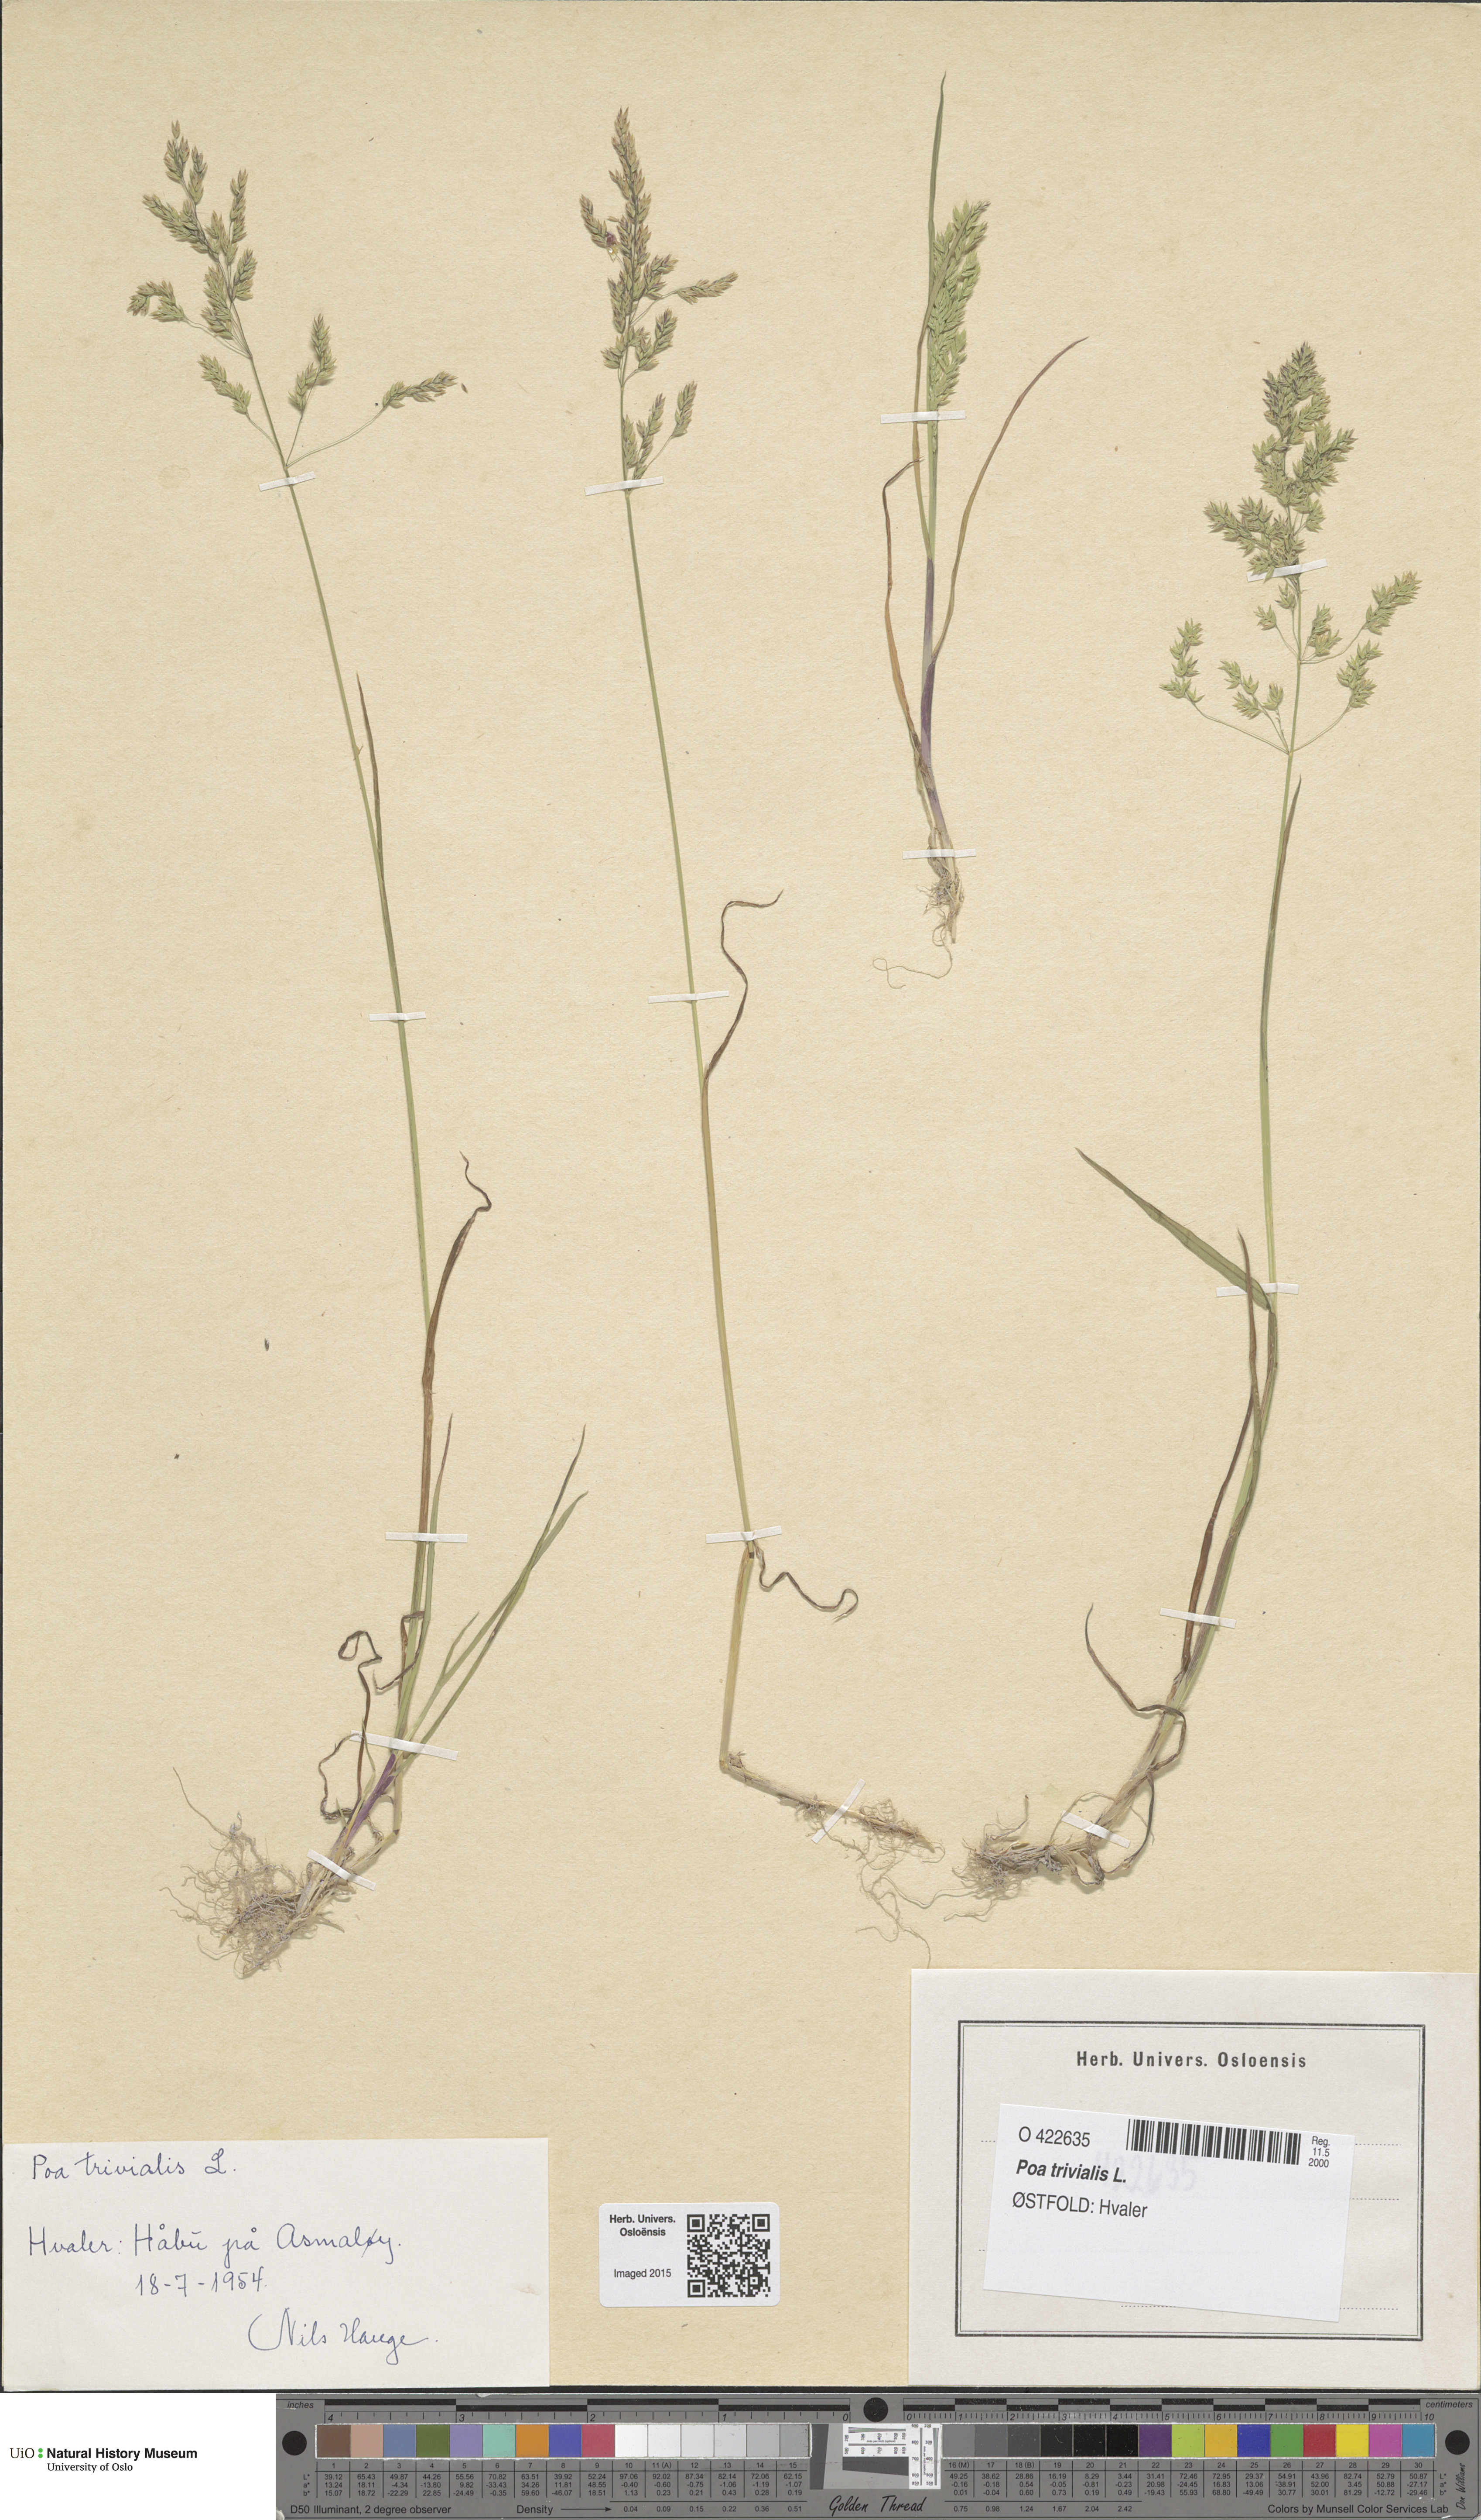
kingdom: Plantae
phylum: Tracheophyta
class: Liliopsida
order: Poales
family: Poaceae
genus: Poa
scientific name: Poa trivialis
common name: Rough bluegrass
